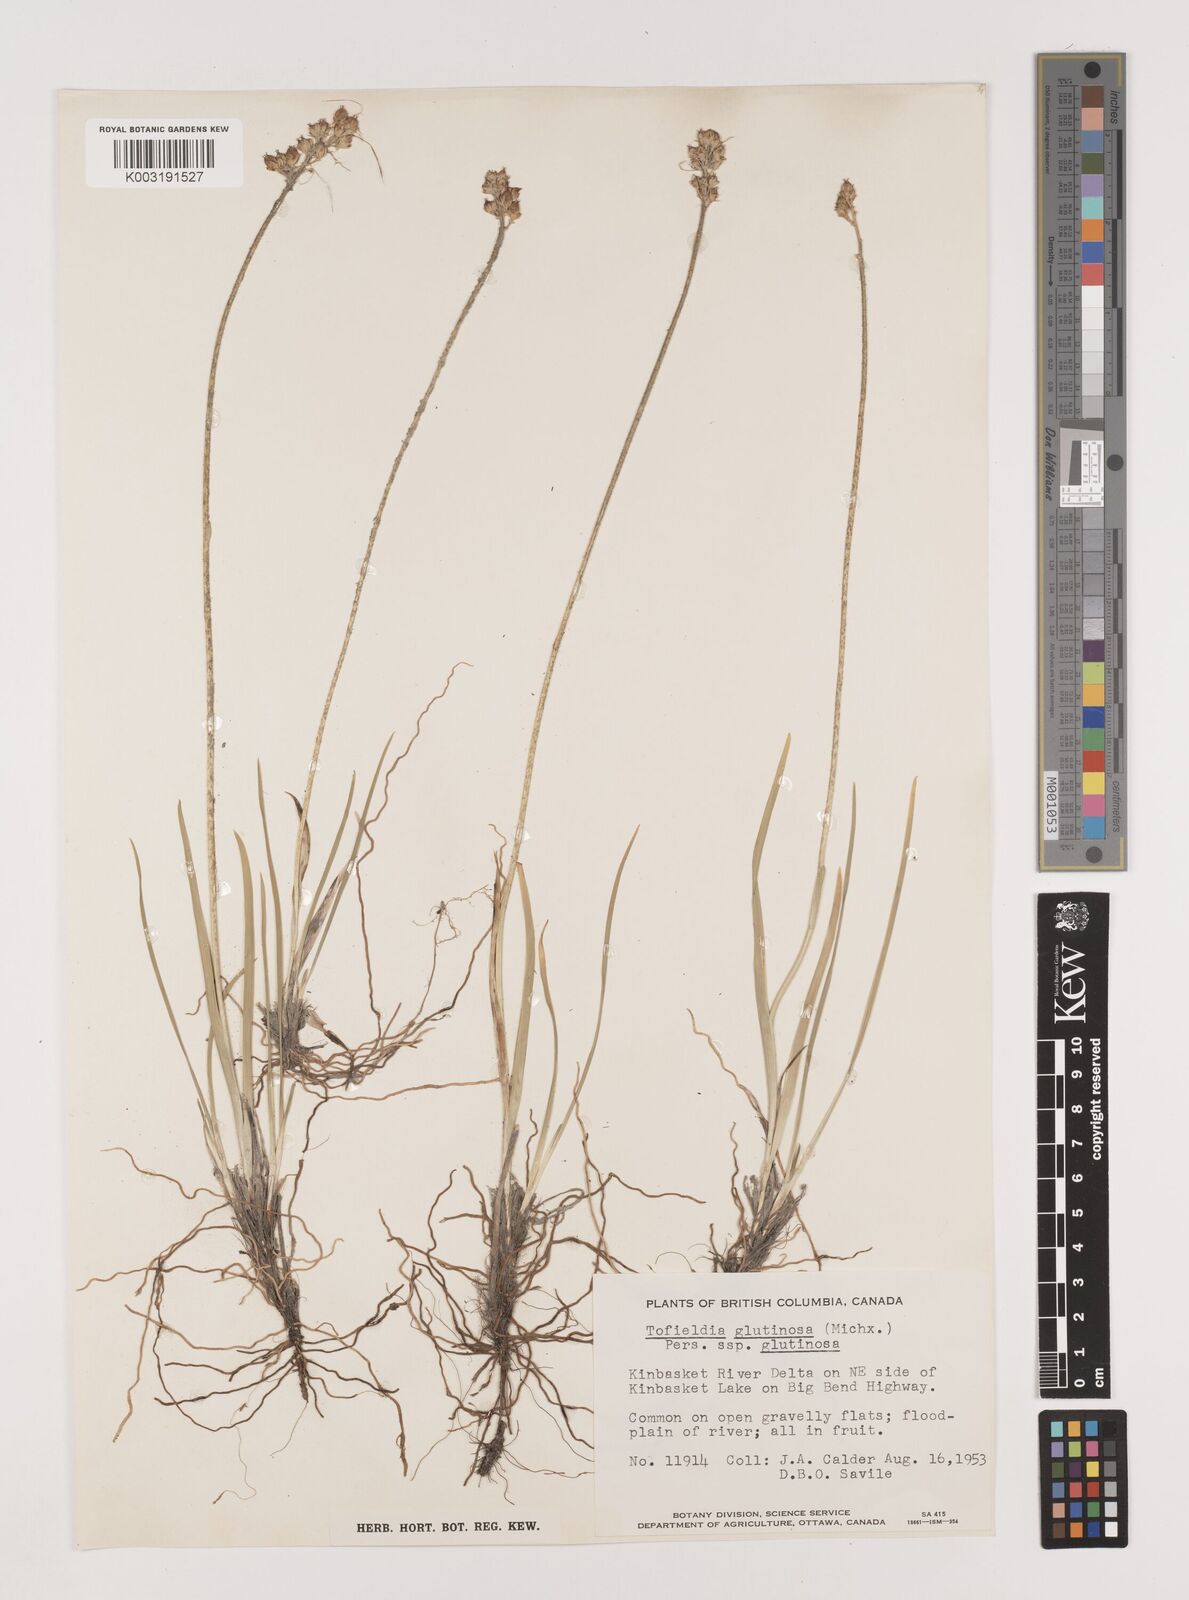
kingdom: Plantae
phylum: Tracheophyta
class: Liliopsida
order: Alismatales
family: Tofieldiaceae
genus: Triantha
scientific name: Triantha glutinosa
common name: Glutinous tofieldia
